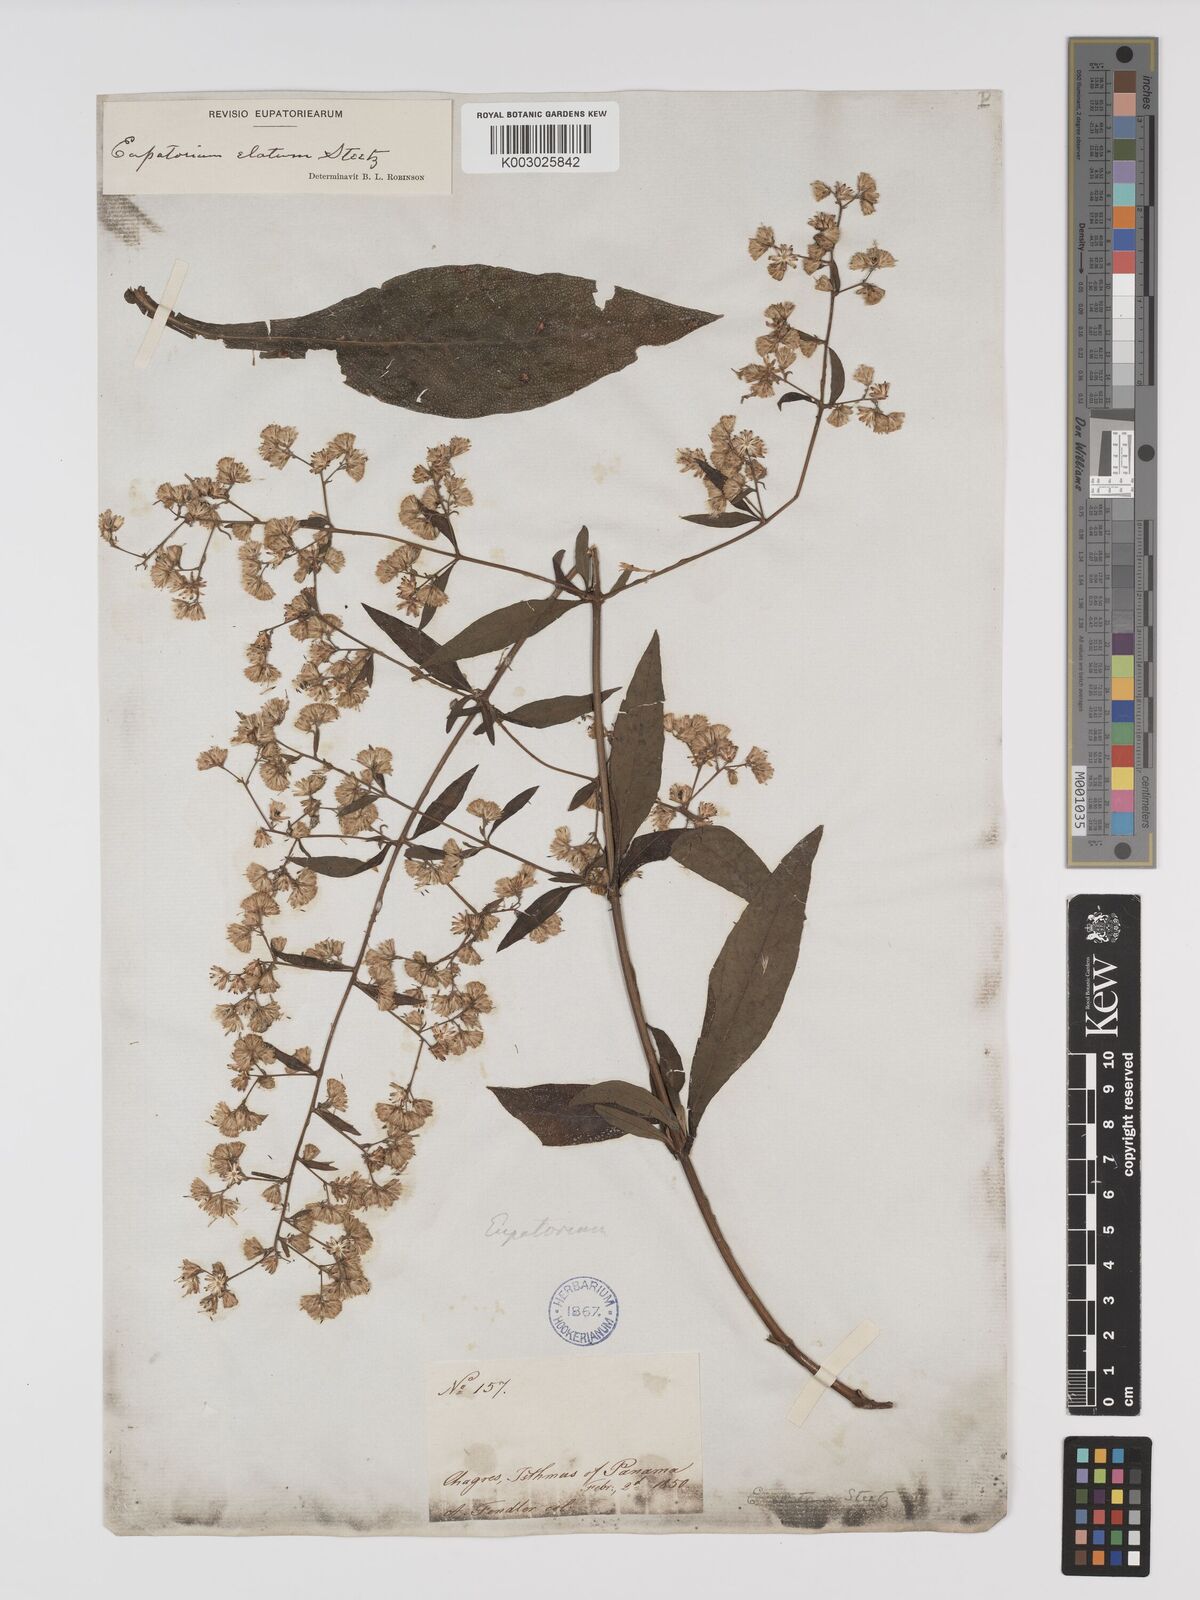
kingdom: Plantae
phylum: Tracheophyta
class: Magnoliopsida
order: Asterales
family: Asteraceae
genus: Ayapana
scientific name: Ayapana elata
